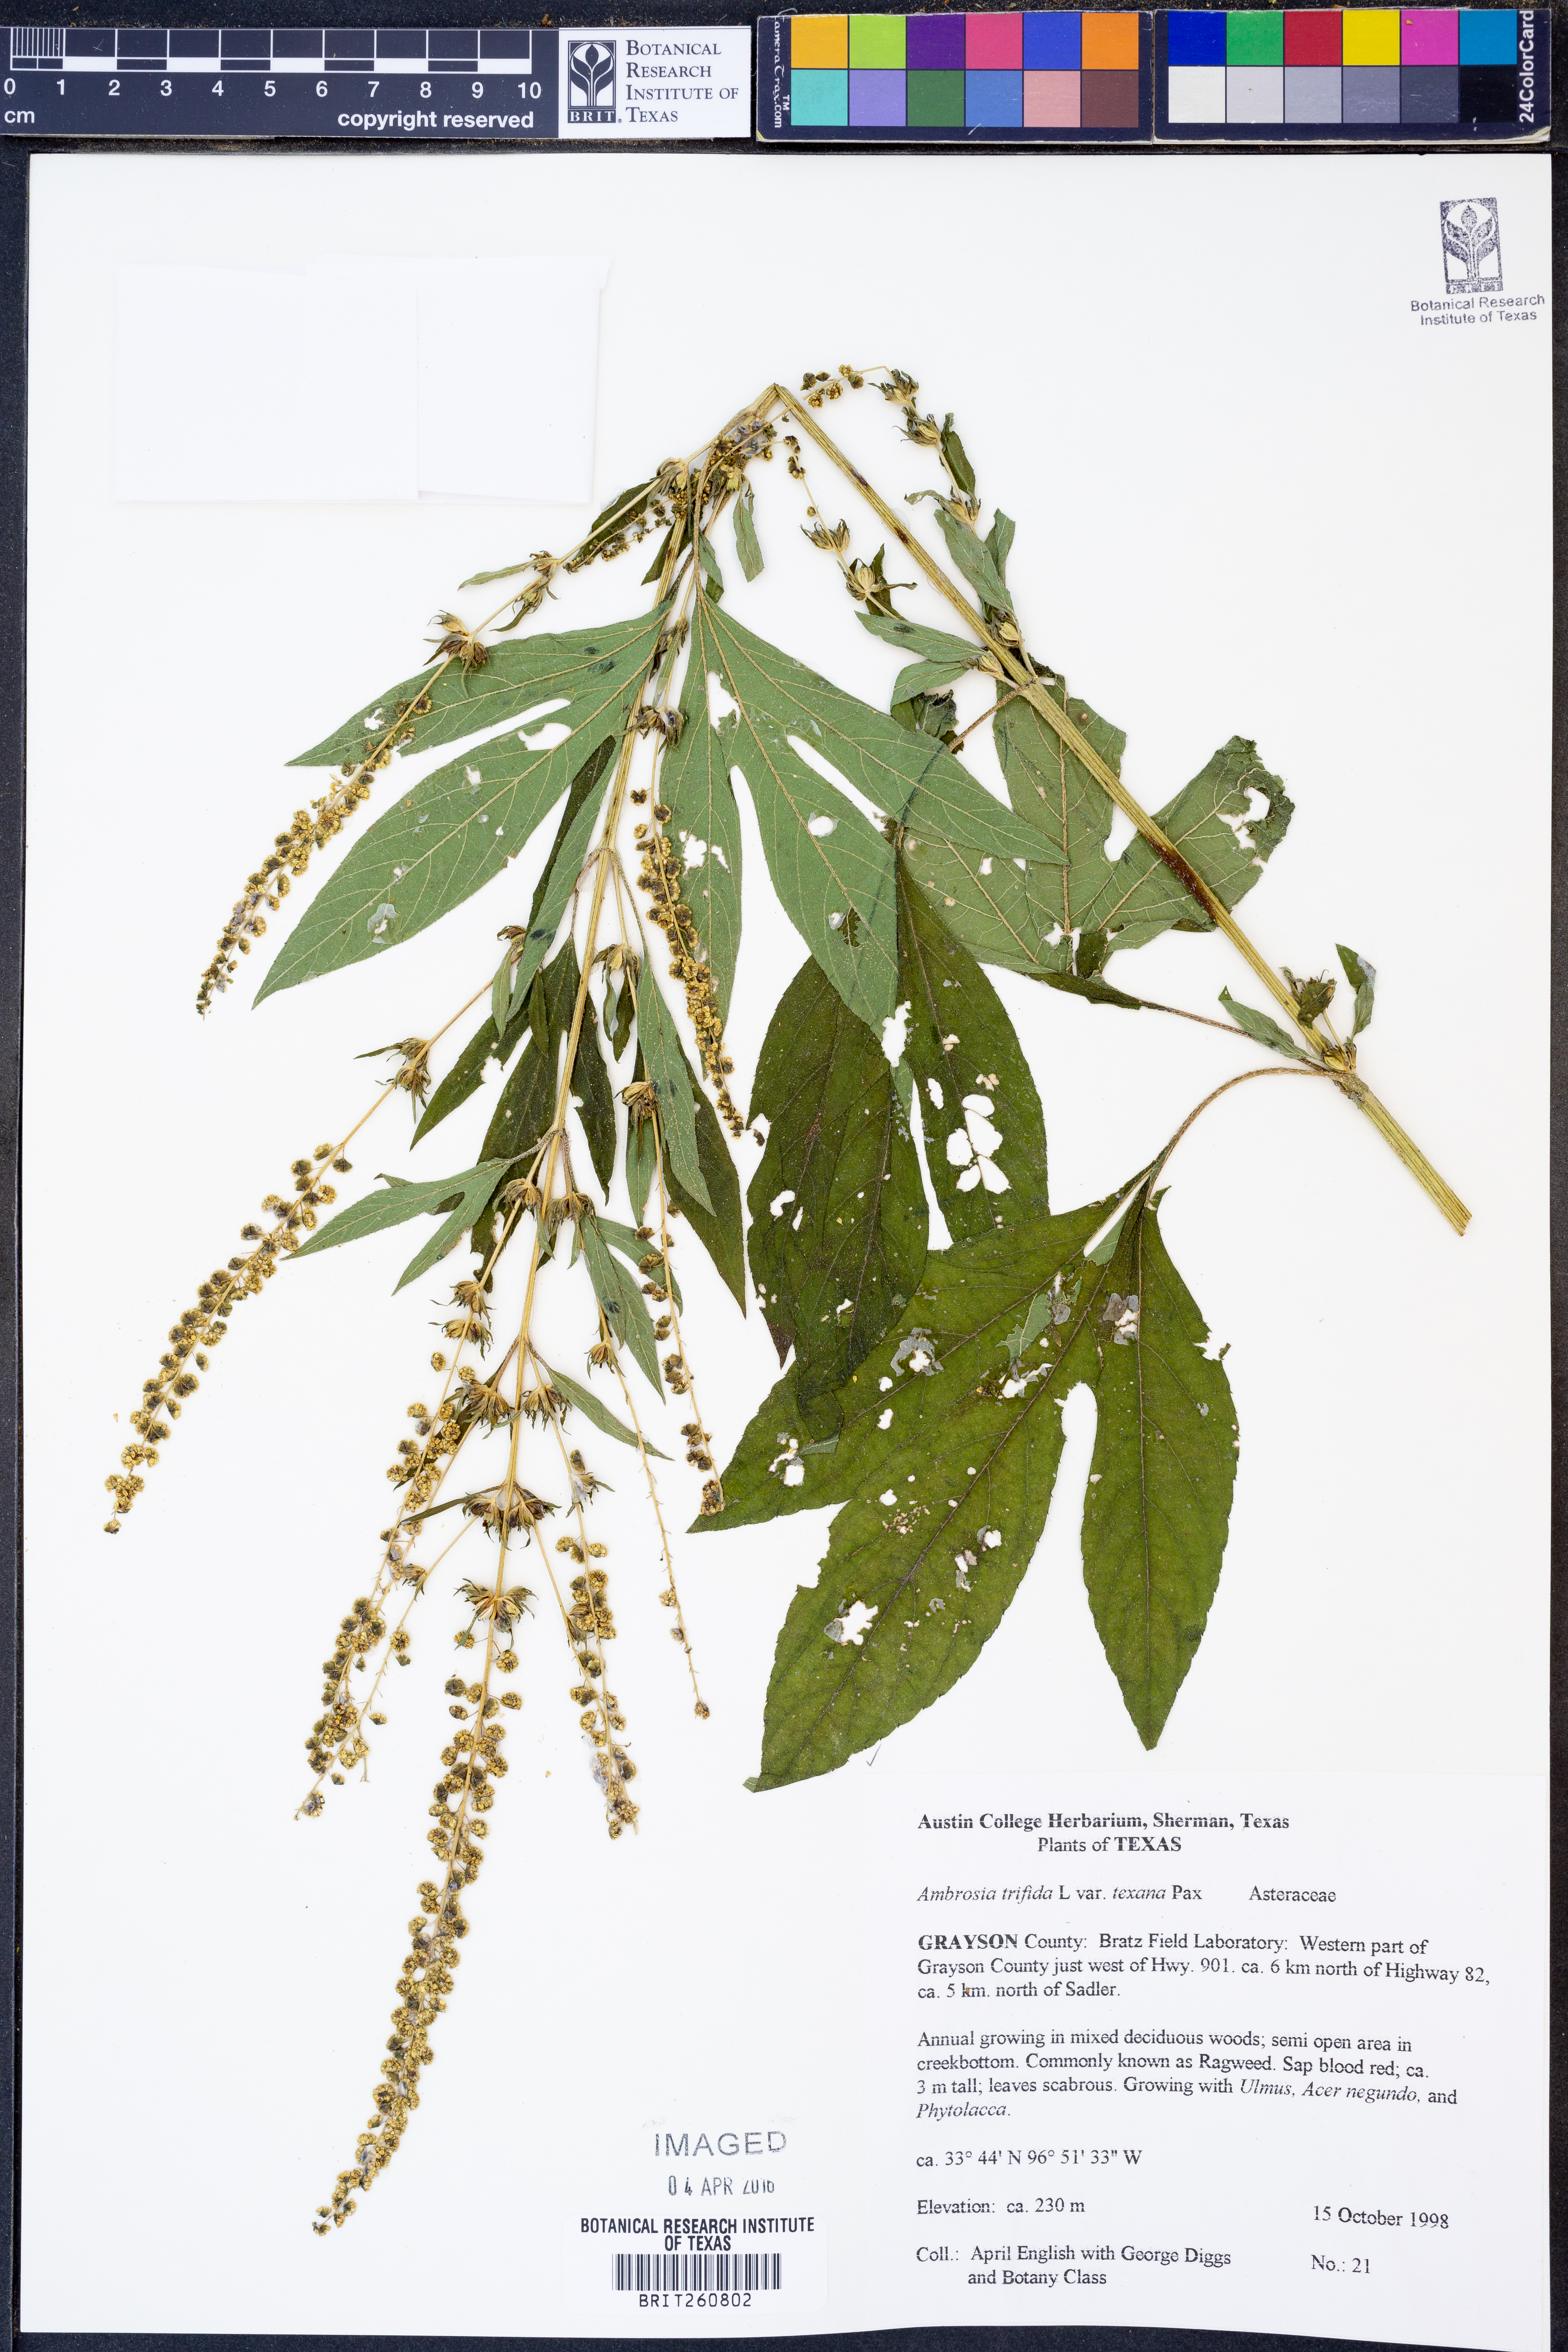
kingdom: Plantae
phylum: Tracheophyta
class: Magnoliopsida
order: Asterales
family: Asteraceae
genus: Ambrosia
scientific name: Ambrosia trifida
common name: Giant ragweed
